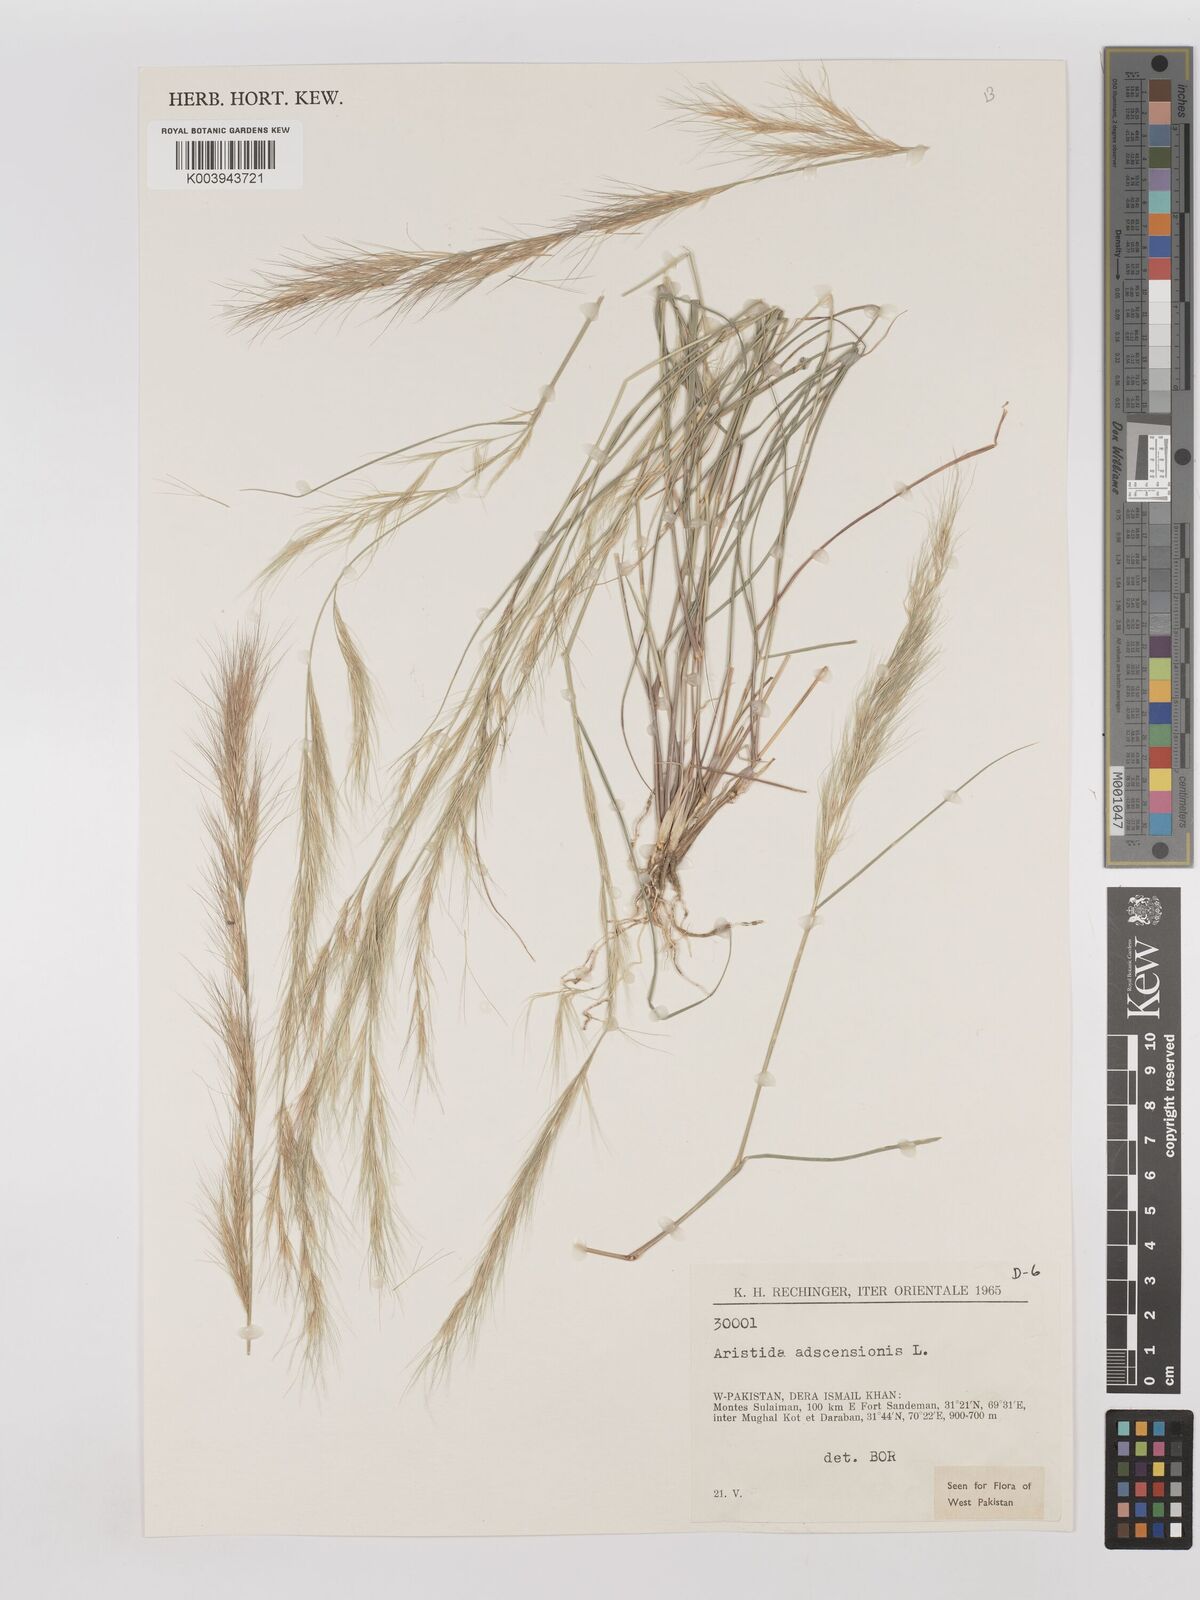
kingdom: Plantae
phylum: Tracheophyta
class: Liliopsida
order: Poales
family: Poaceae
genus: Aristida
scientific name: Aristida adscensionis
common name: Sixweeks threeawn
